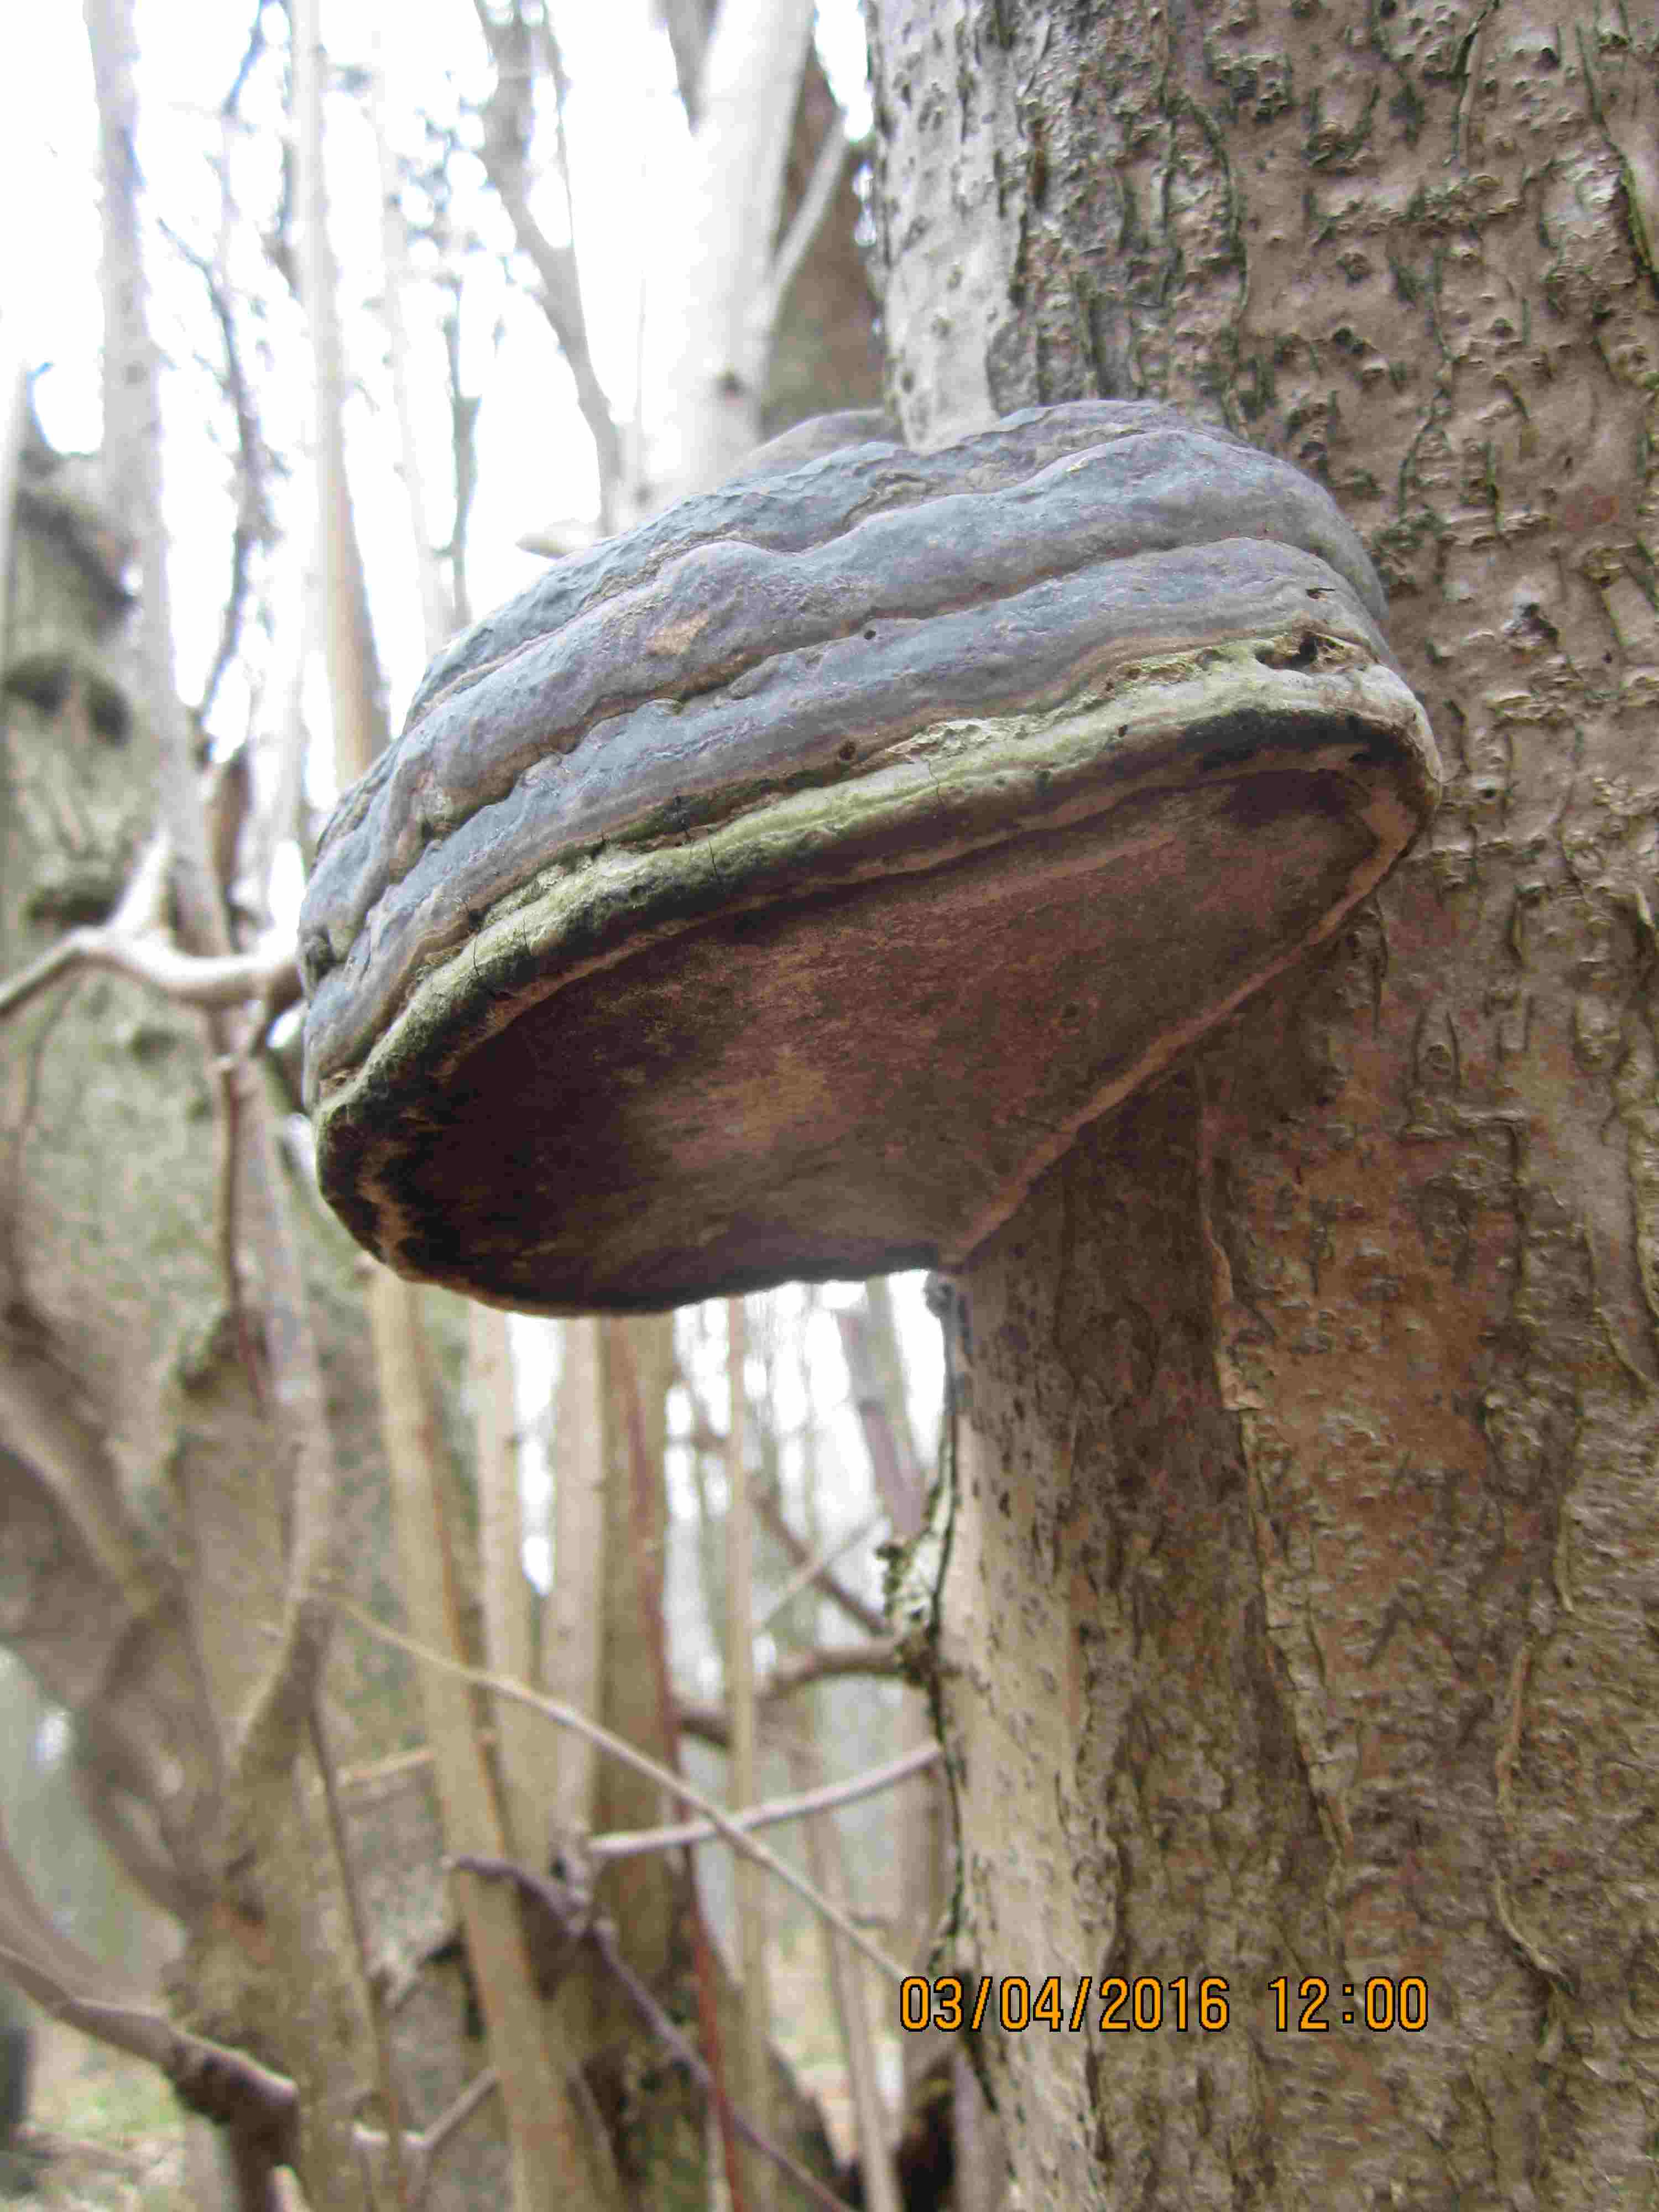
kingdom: Fungi
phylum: Basidiomycota
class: Agaricomycetes
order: Polyporales
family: Polyporaceae
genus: Fomes
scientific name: Fomes fomentarius
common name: tøndersvamp
